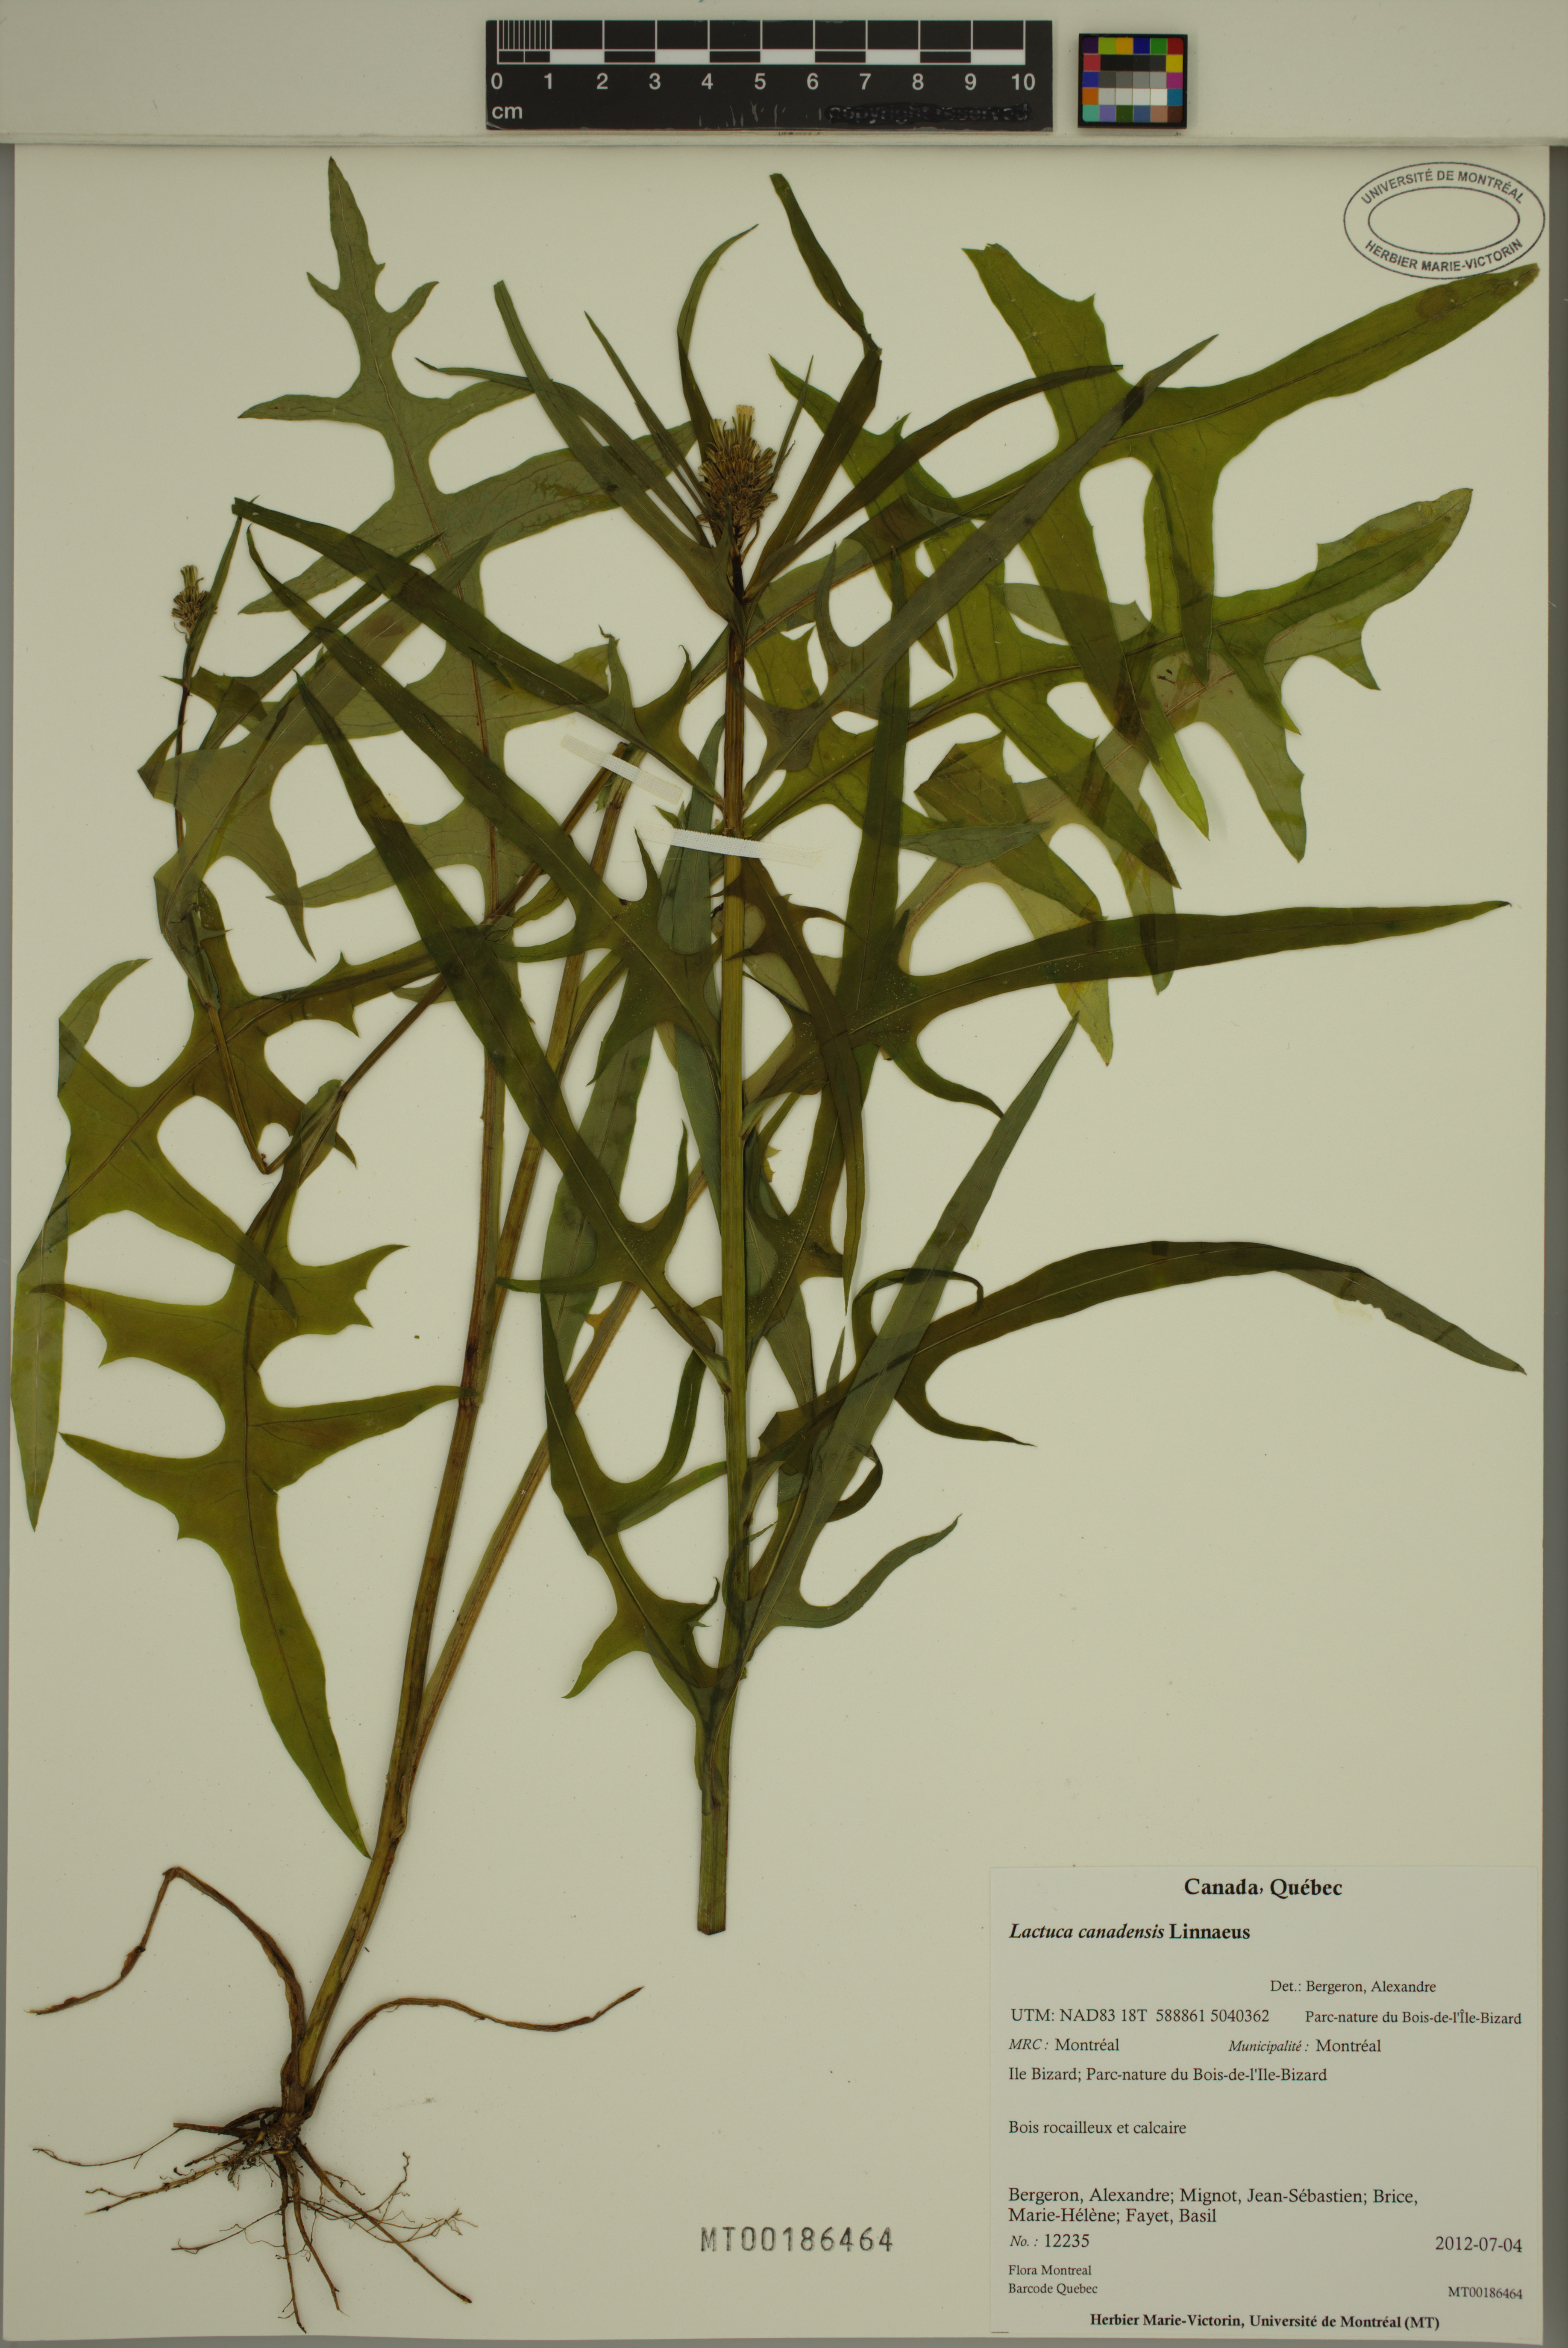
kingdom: Plantae
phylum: Tracheophyta
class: Magnoliopsida
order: Asterales
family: Asteraceae
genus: Lactuca
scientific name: Lactuca canadensis
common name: Canada lettuce
